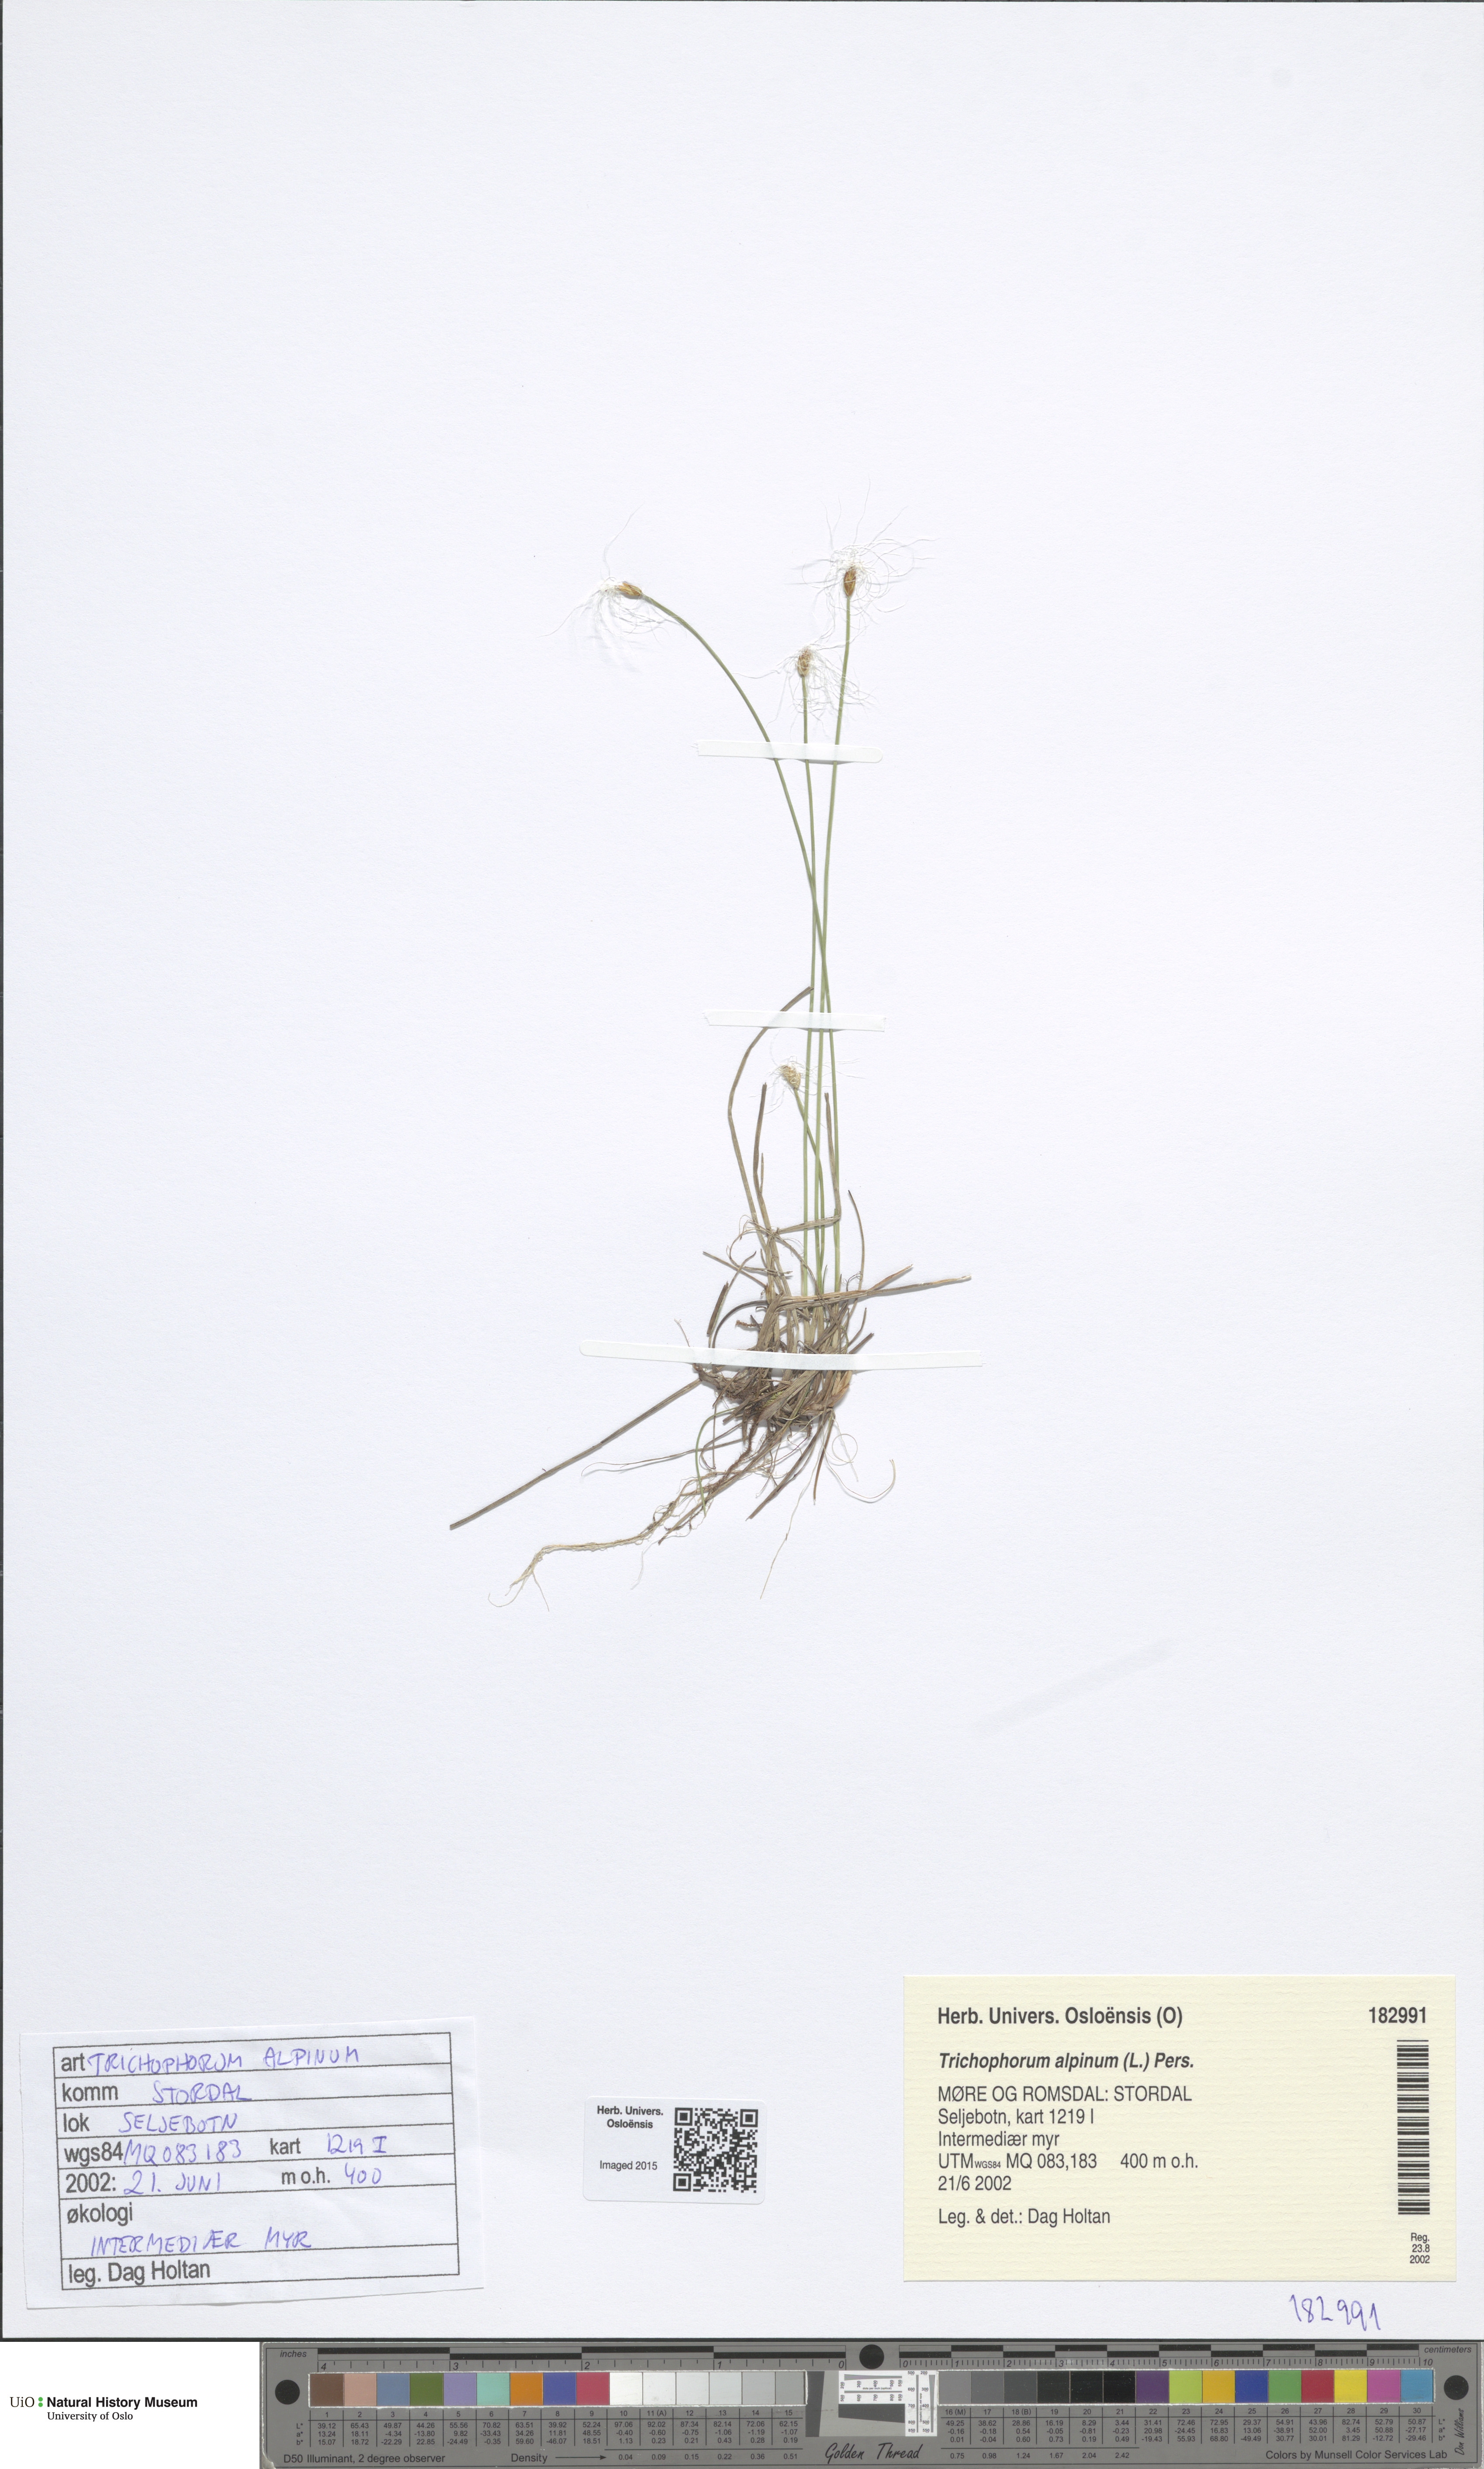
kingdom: Plantae
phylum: Tracheophyta
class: Liliopsida
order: Poales
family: Cyperaceae
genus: Trichophorum
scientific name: Trichophorum alpinum
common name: Alpine bulrush
